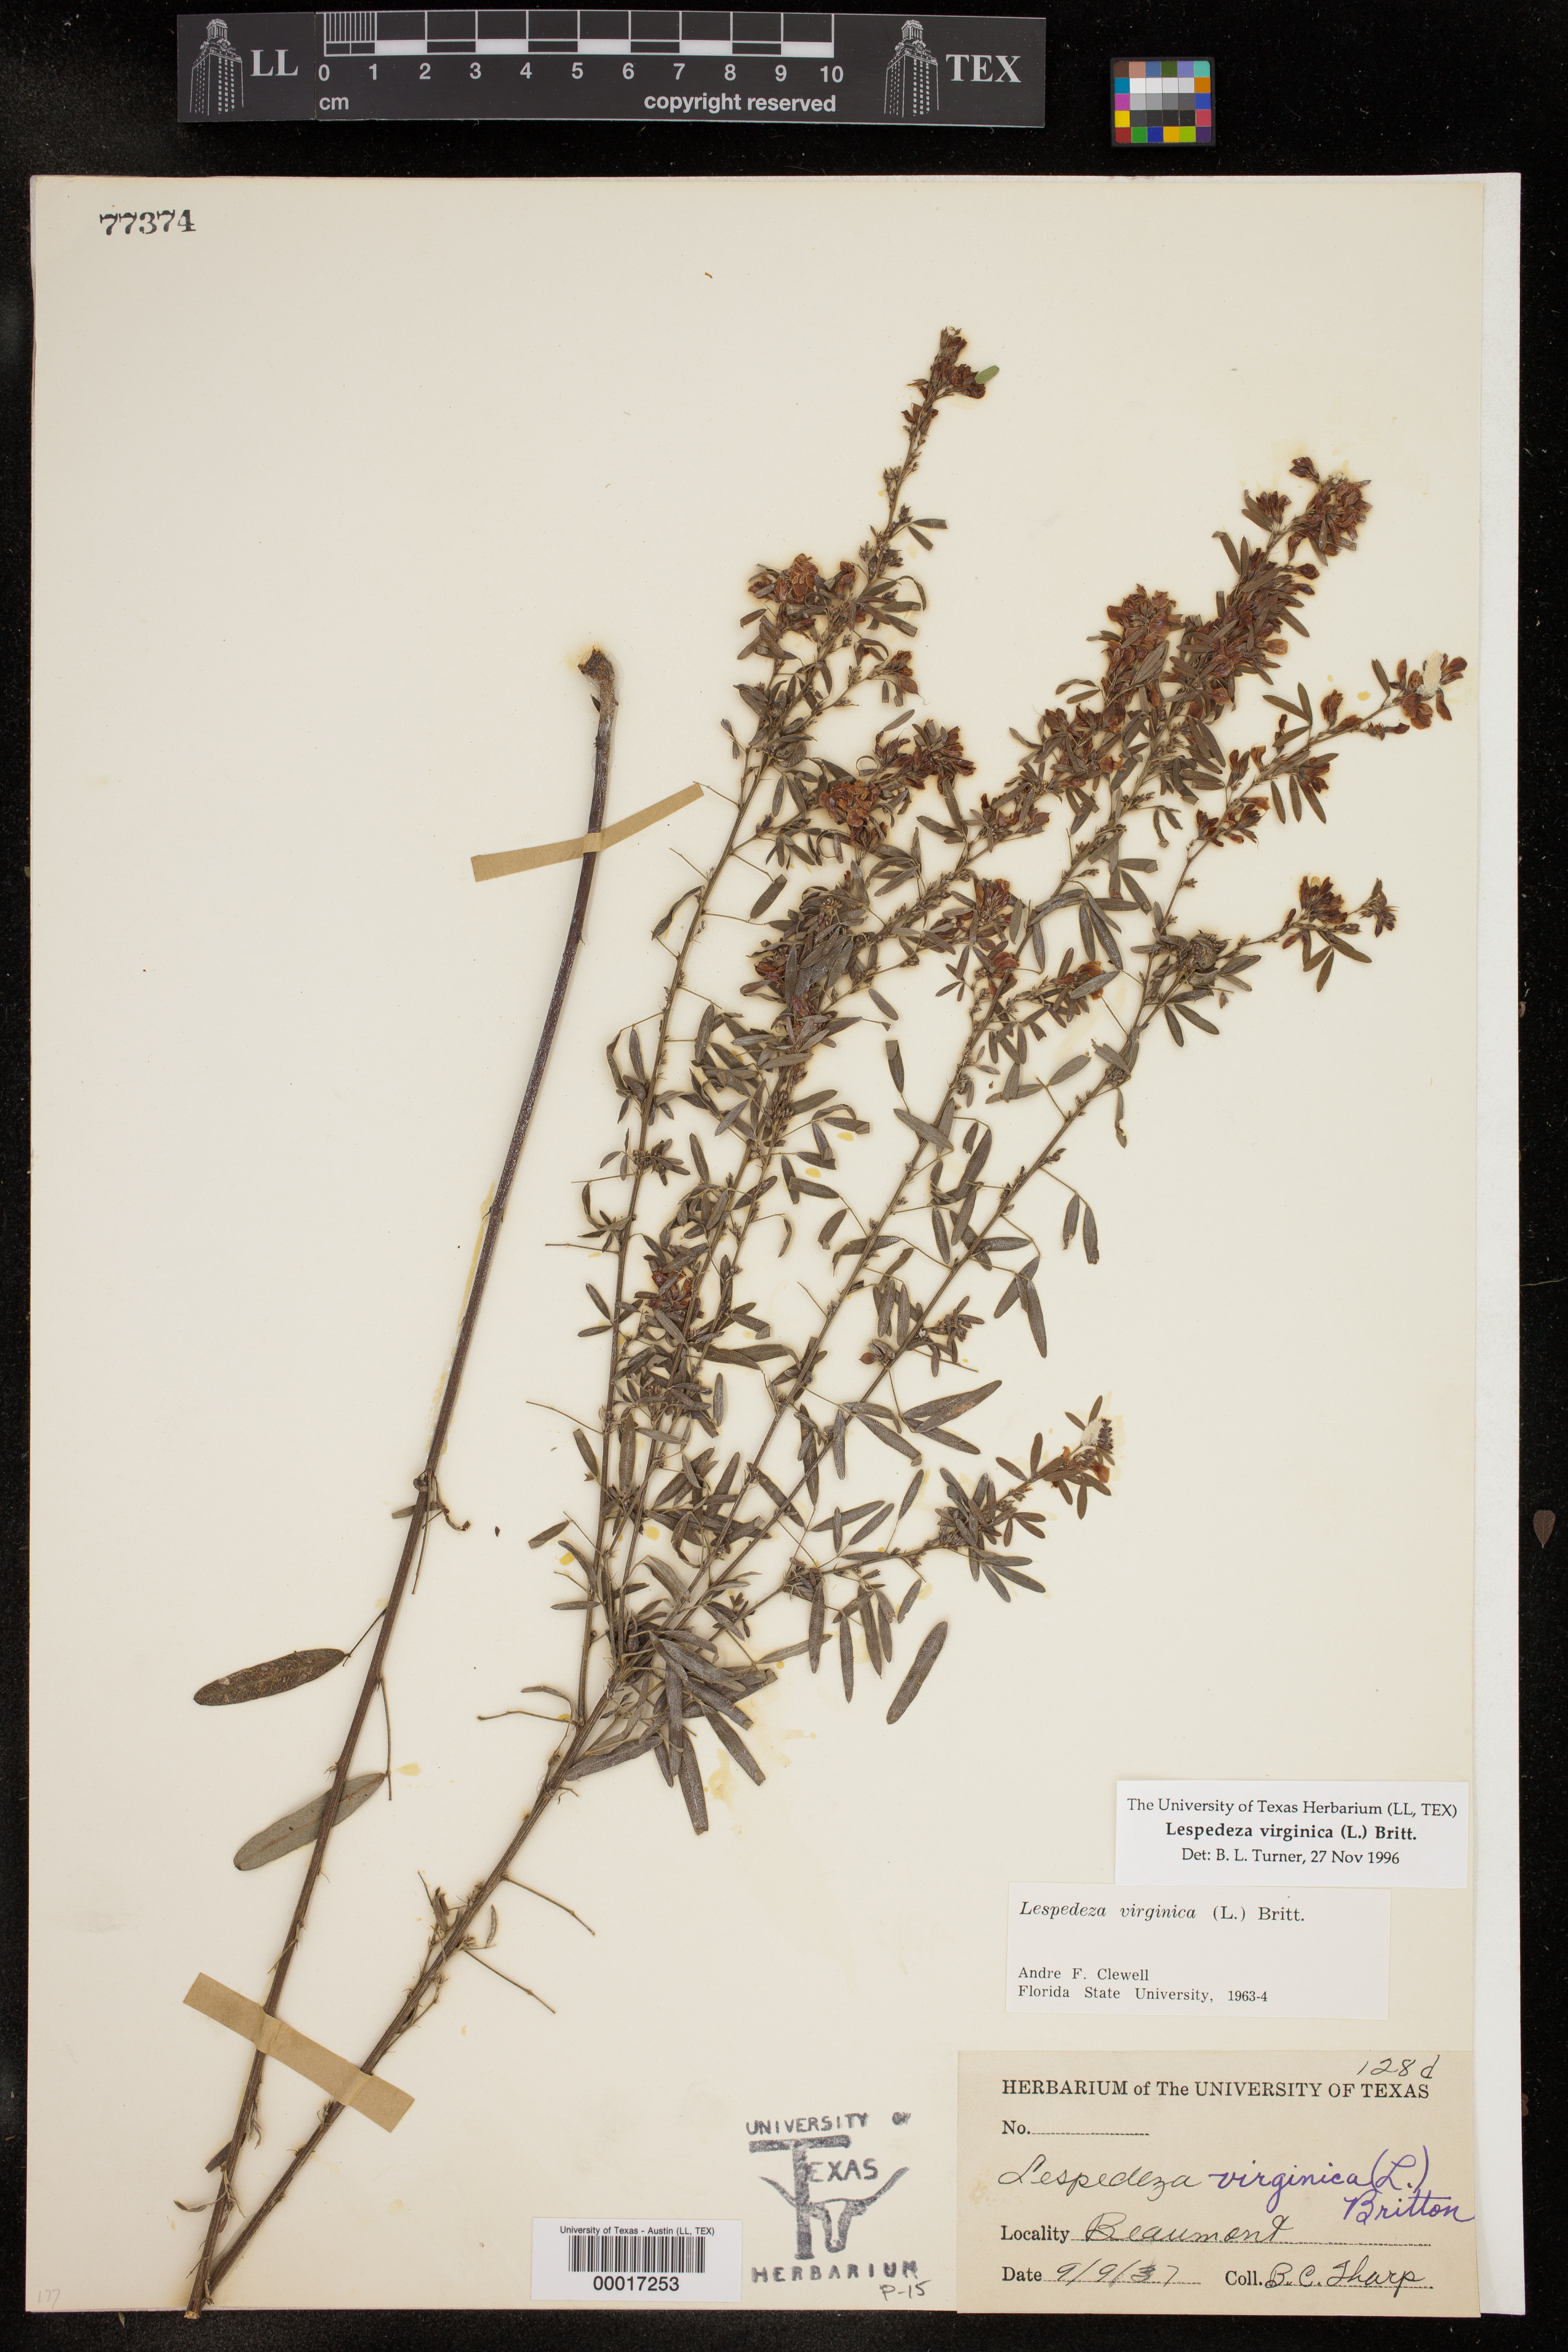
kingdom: Plantae
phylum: Tracheophyta
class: Magnoliopsida
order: Fabales
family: Fabaceae
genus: Lespedeza
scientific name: Lespedeza virginica
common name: Slender bush-clover
